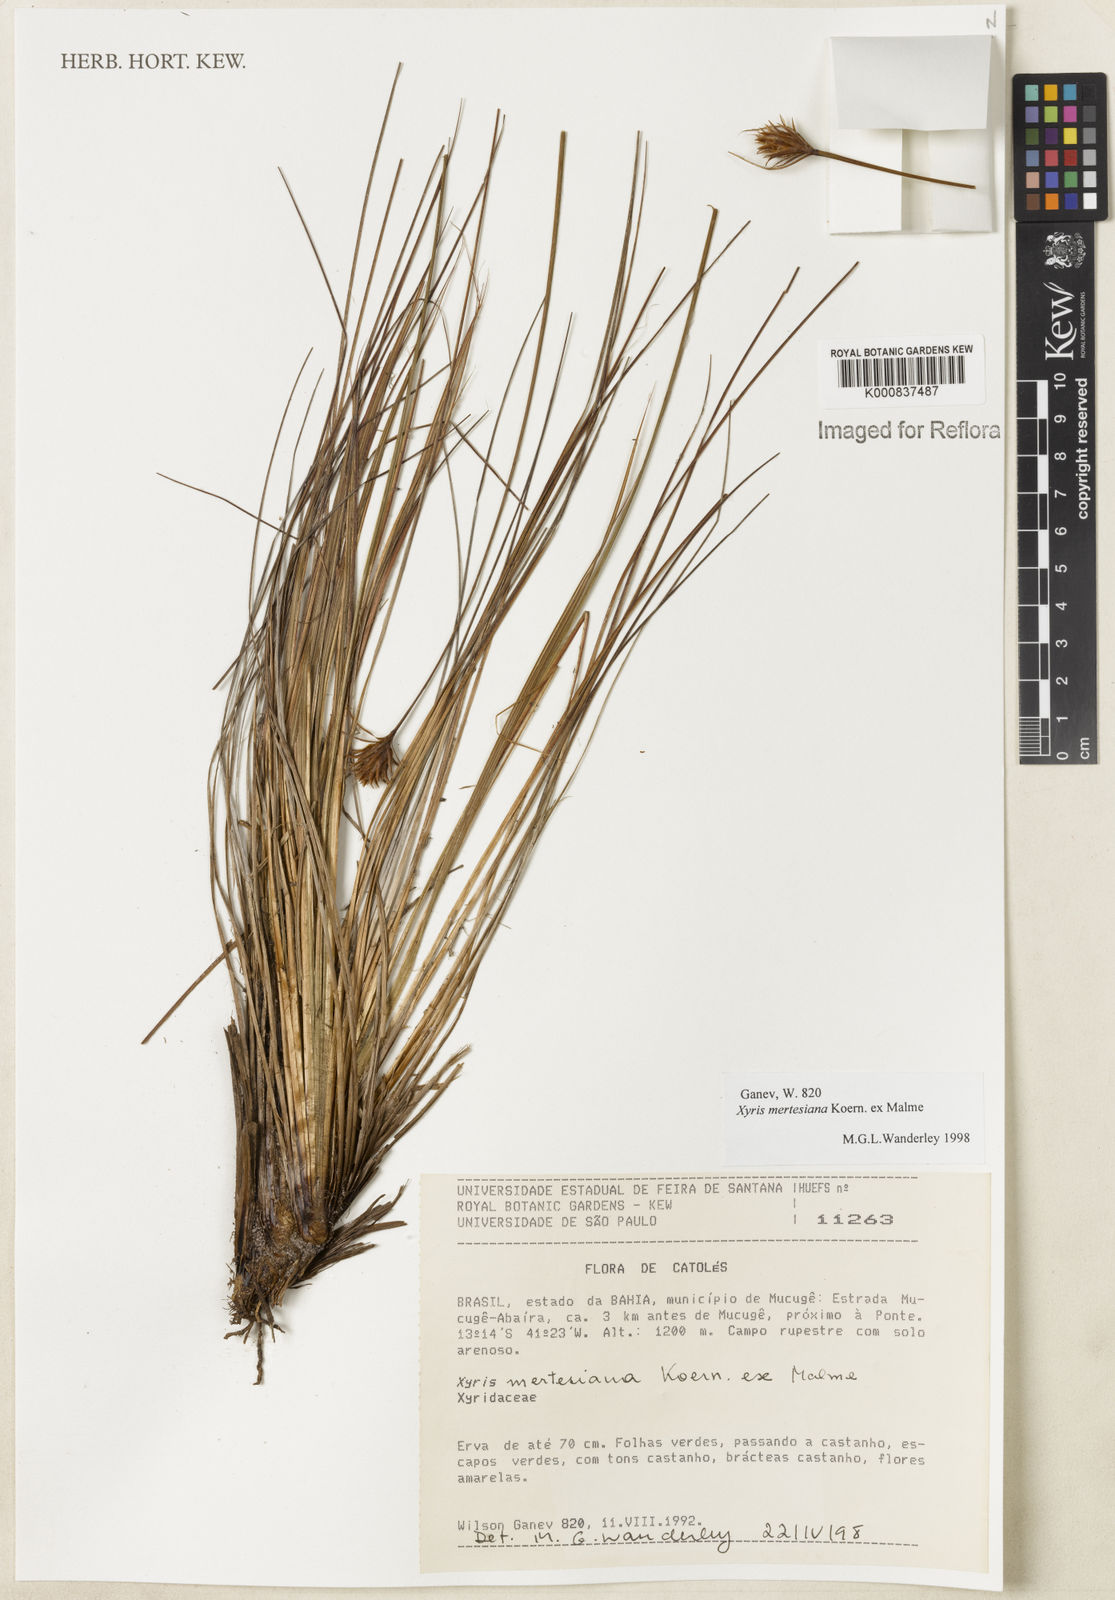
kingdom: Plantae
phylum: Tracheophyta
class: Liliopsida
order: Poales
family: Xyridaceae
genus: Xyris
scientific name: Xyris
